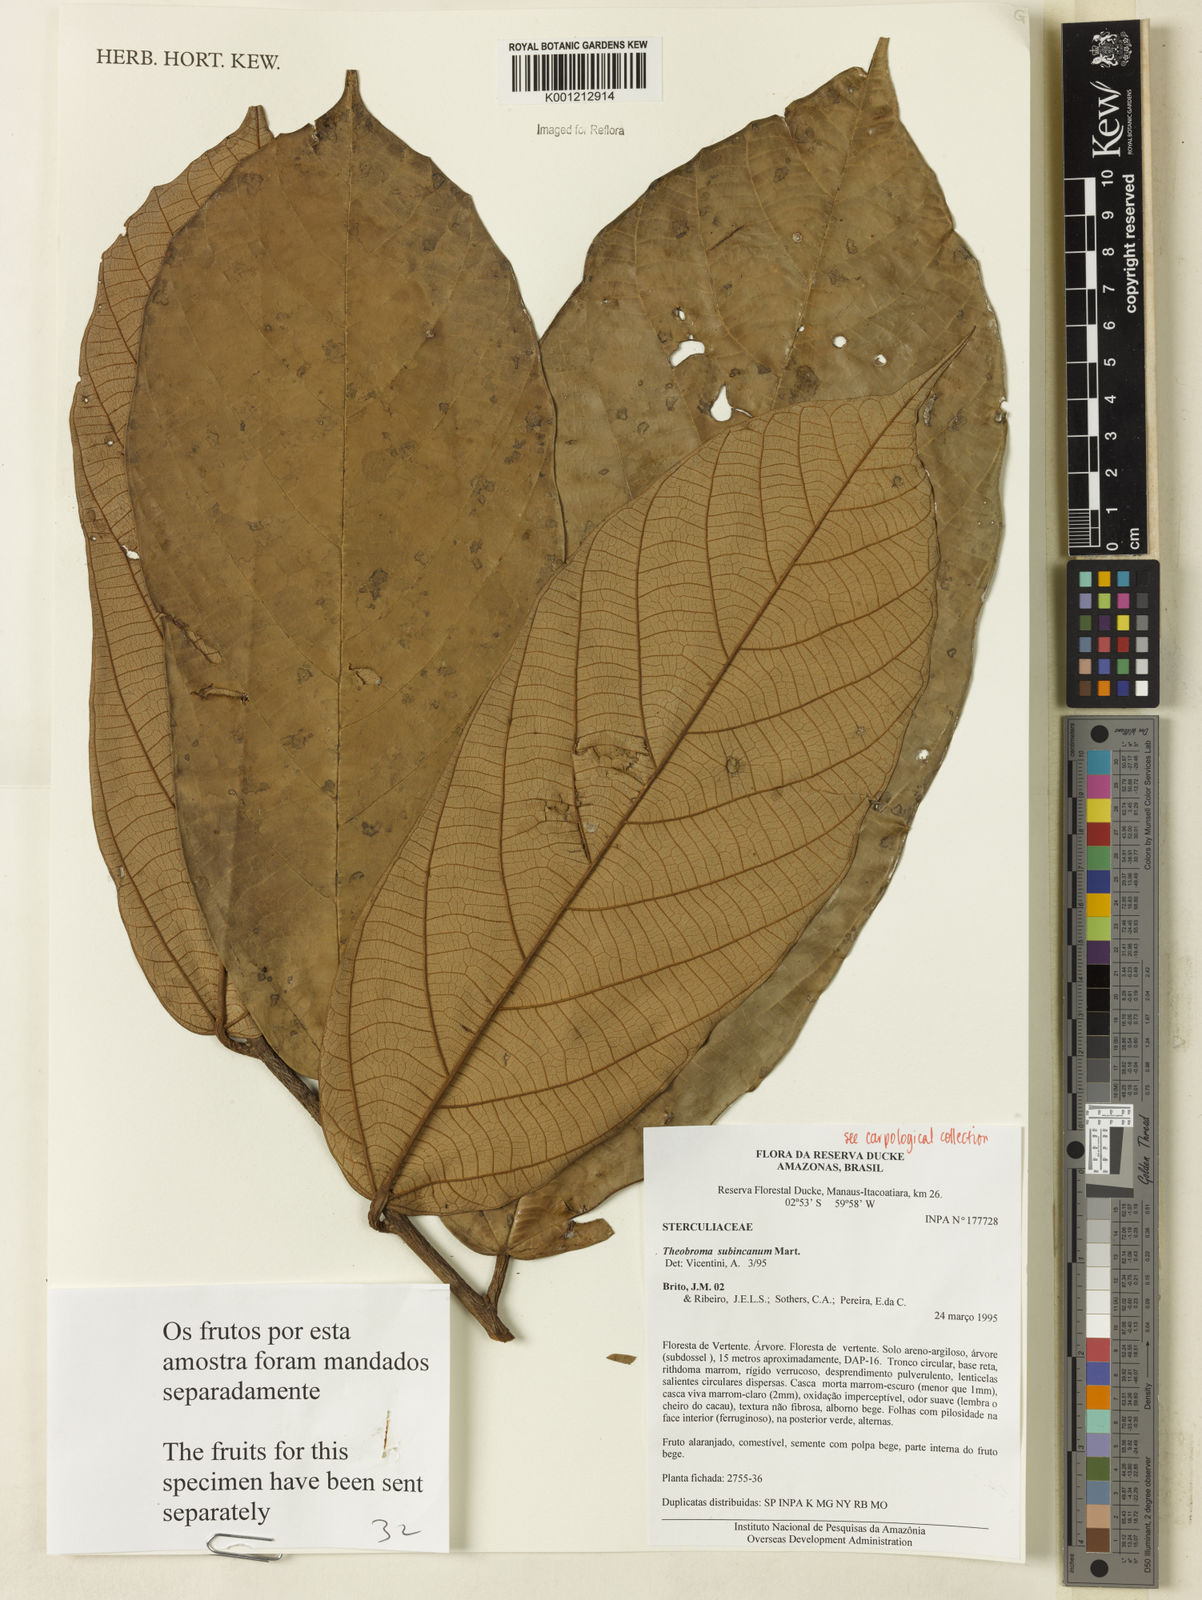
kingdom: Plantae
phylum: Tracheophyta
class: Magnoliopsida
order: Malvales
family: Malvaceae
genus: Theobroma
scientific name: Theobroma subincanum
